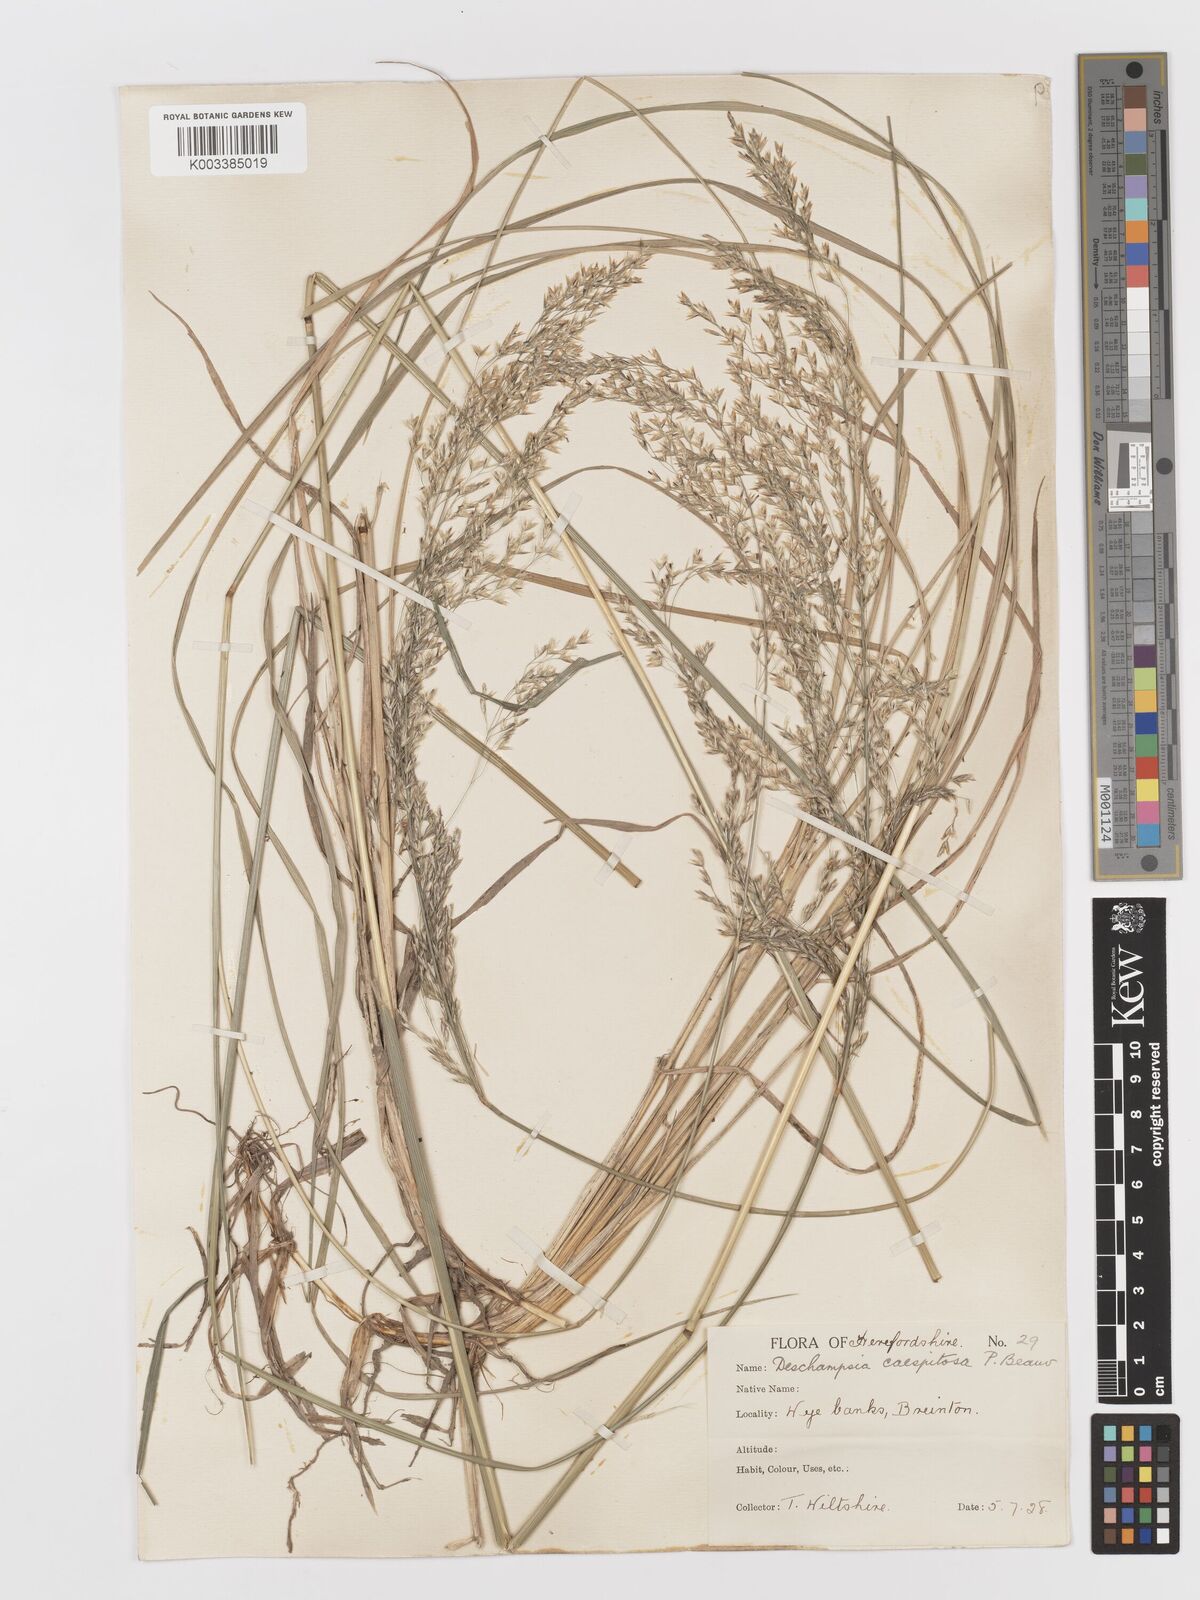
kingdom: Plantae
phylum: Tracheophyta
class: Liliopsida
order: Poales
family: Poaceae
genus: Deschampsia
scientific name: Deschampsia cespitosa
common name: Tufted hair-grass
